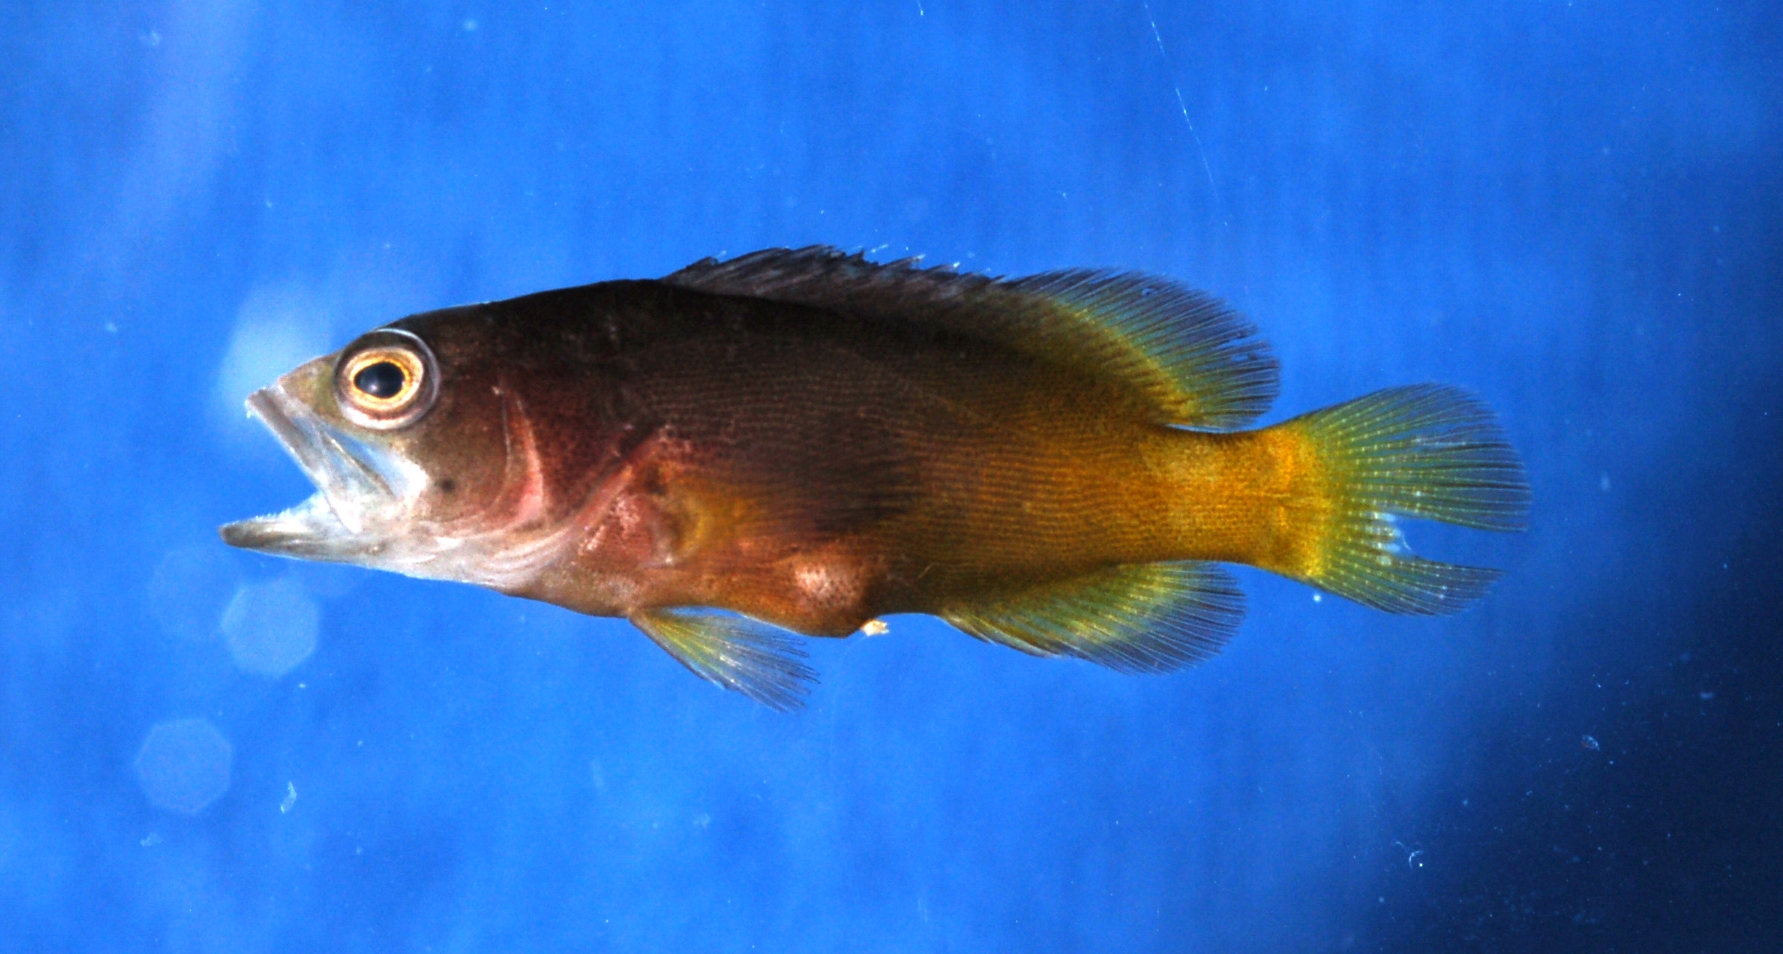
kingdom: Animalia
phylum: Chordata
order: Perciformes
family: Serranidae
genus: Cephalopholis
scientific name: Cephalopholis boenak
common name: Chocolate hind
